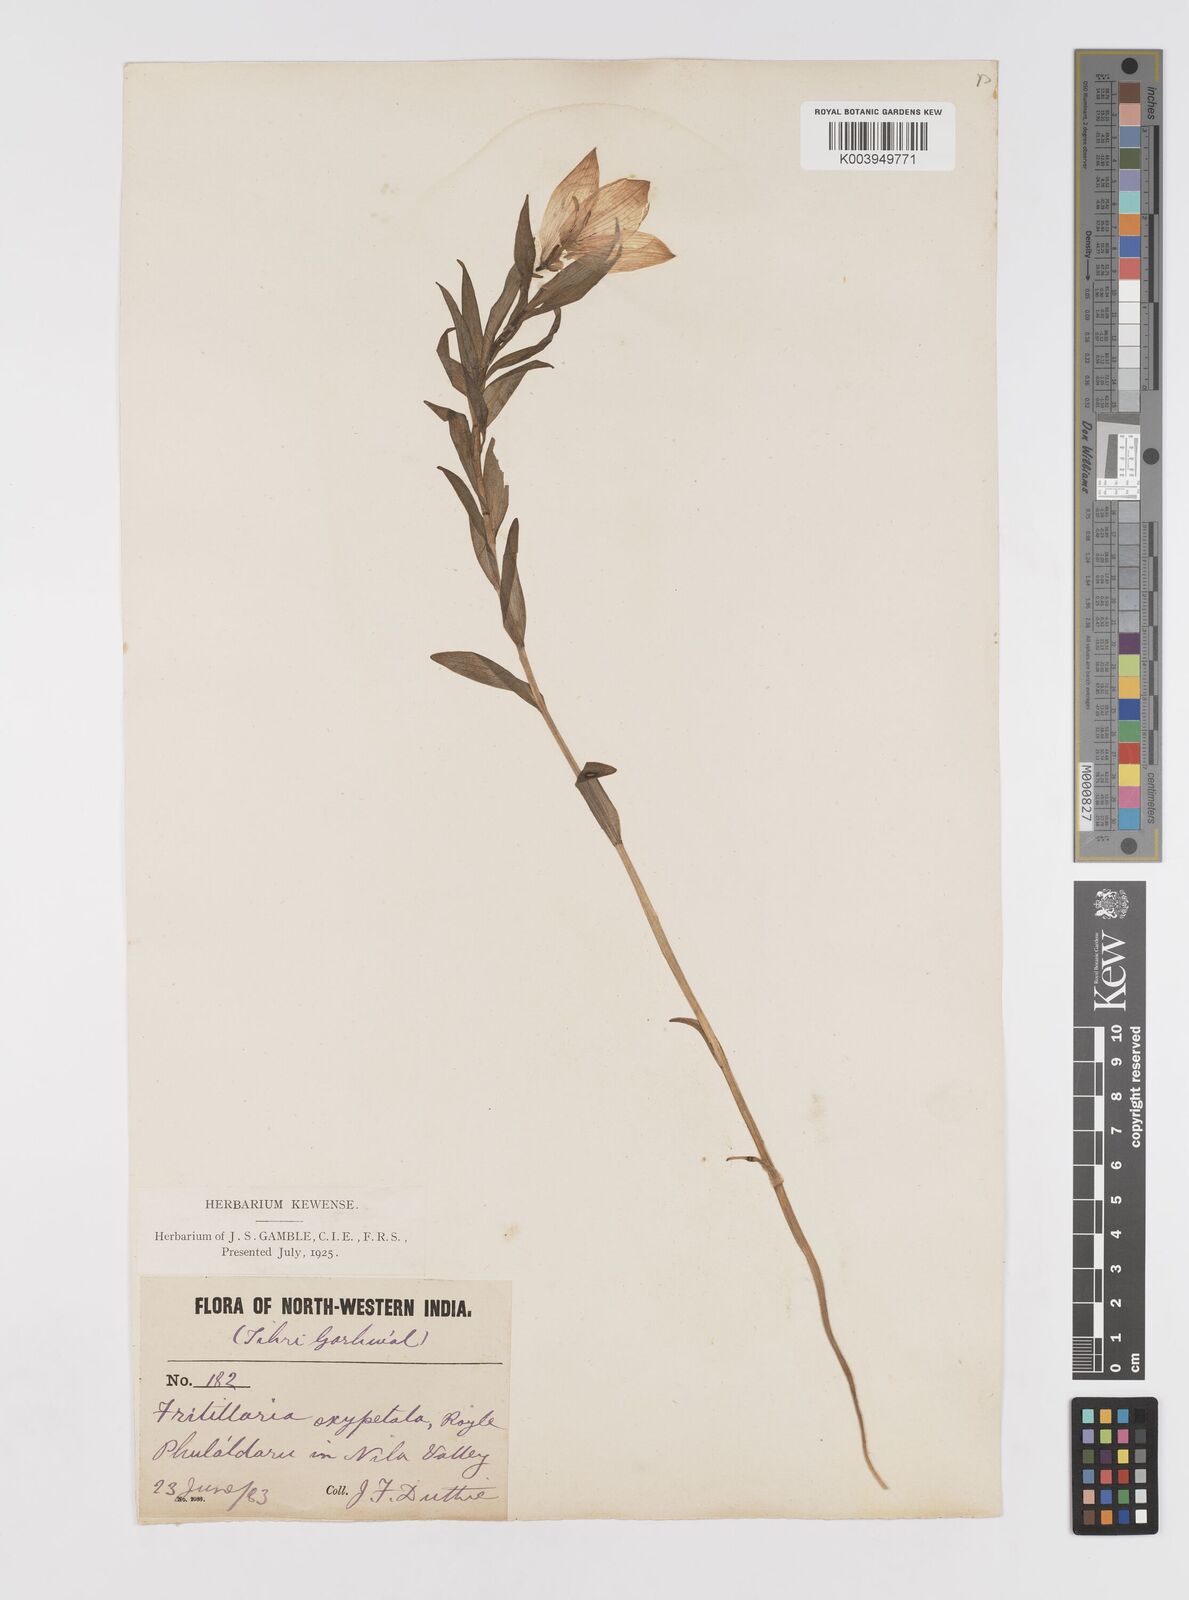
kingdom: Plantae
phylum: Tracheophyta
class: Liliopsida
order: Liliales
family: Liliaceae
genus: Lilium
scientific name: Lilium oxypetalum
